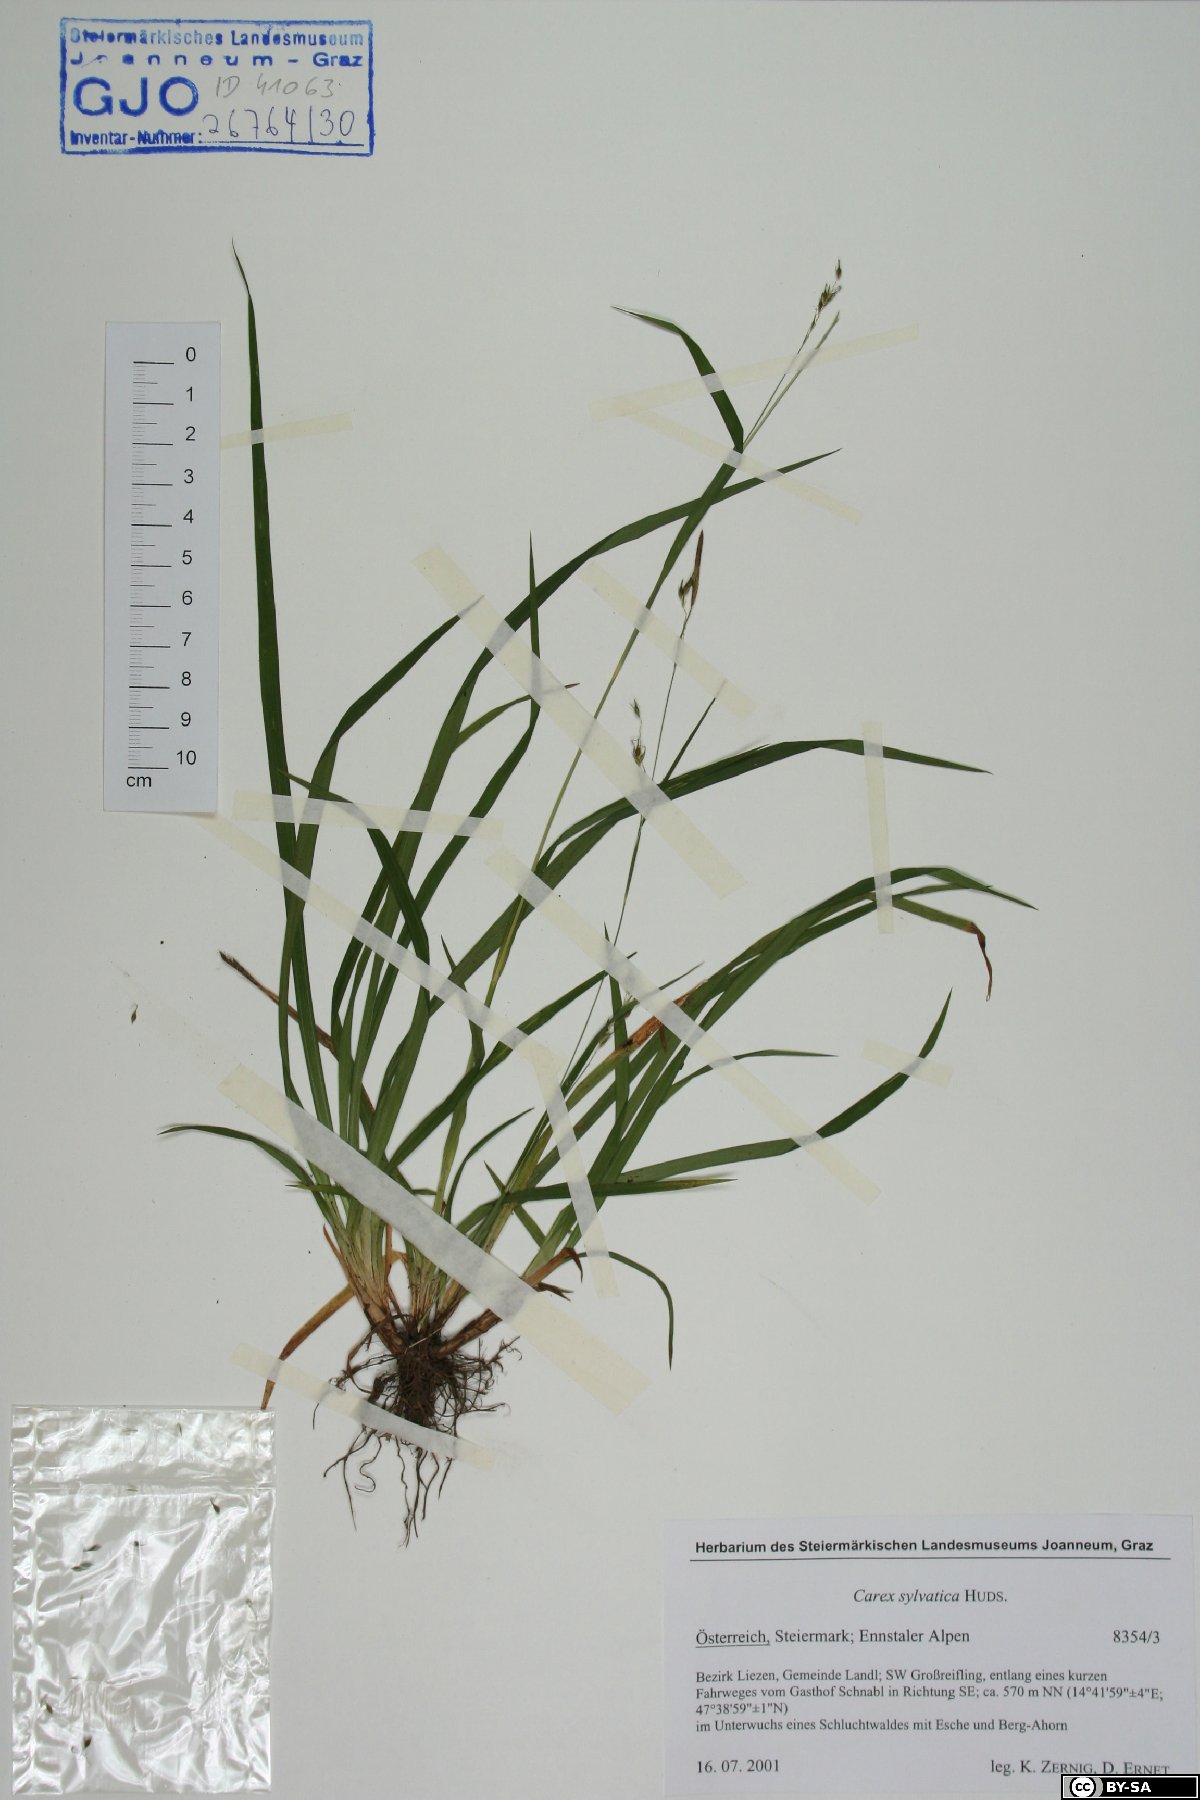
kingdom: Plantae
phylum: Tracheophyta
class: Liliopsida
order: Poales
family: Cyperaceae
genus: Carex
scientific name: Carex sylvatica
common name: Wood-sedge
